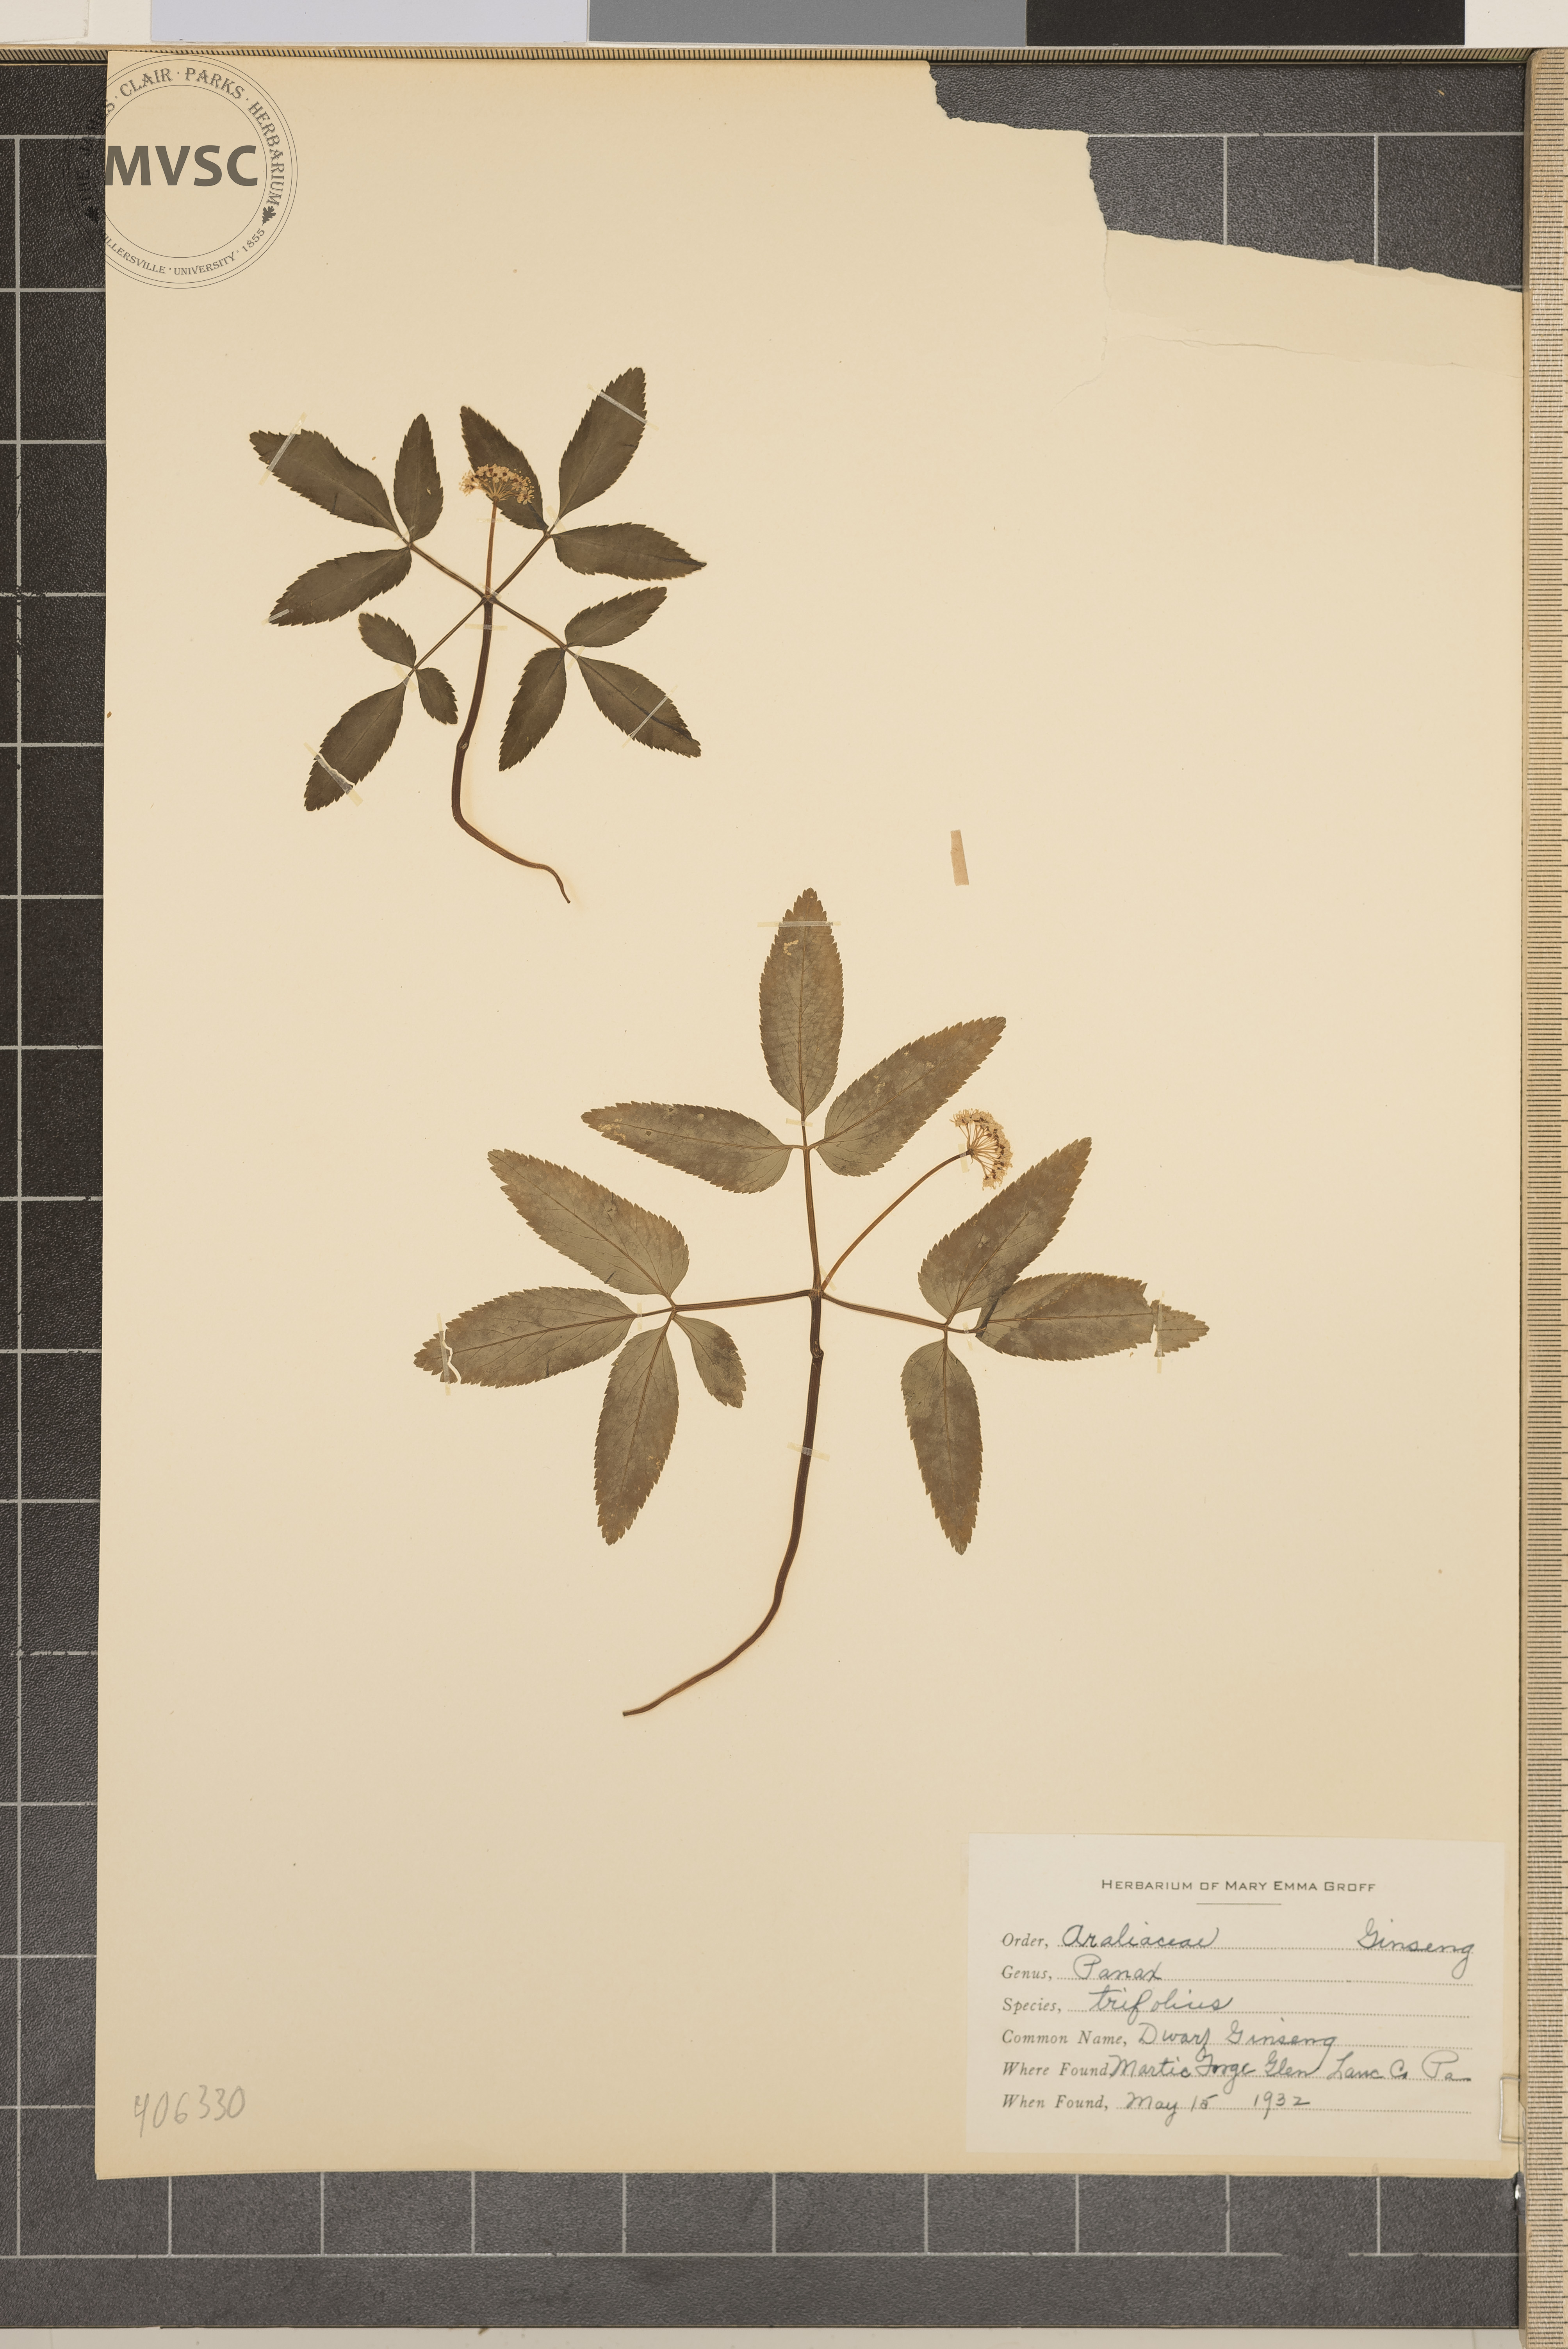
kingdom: Plantae
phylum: Tracheophyta
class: Magnoliopsida
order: Apiales
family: Araliaceae
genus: Panax
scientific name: Panax trifolius
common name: Dwarf Ginseng
